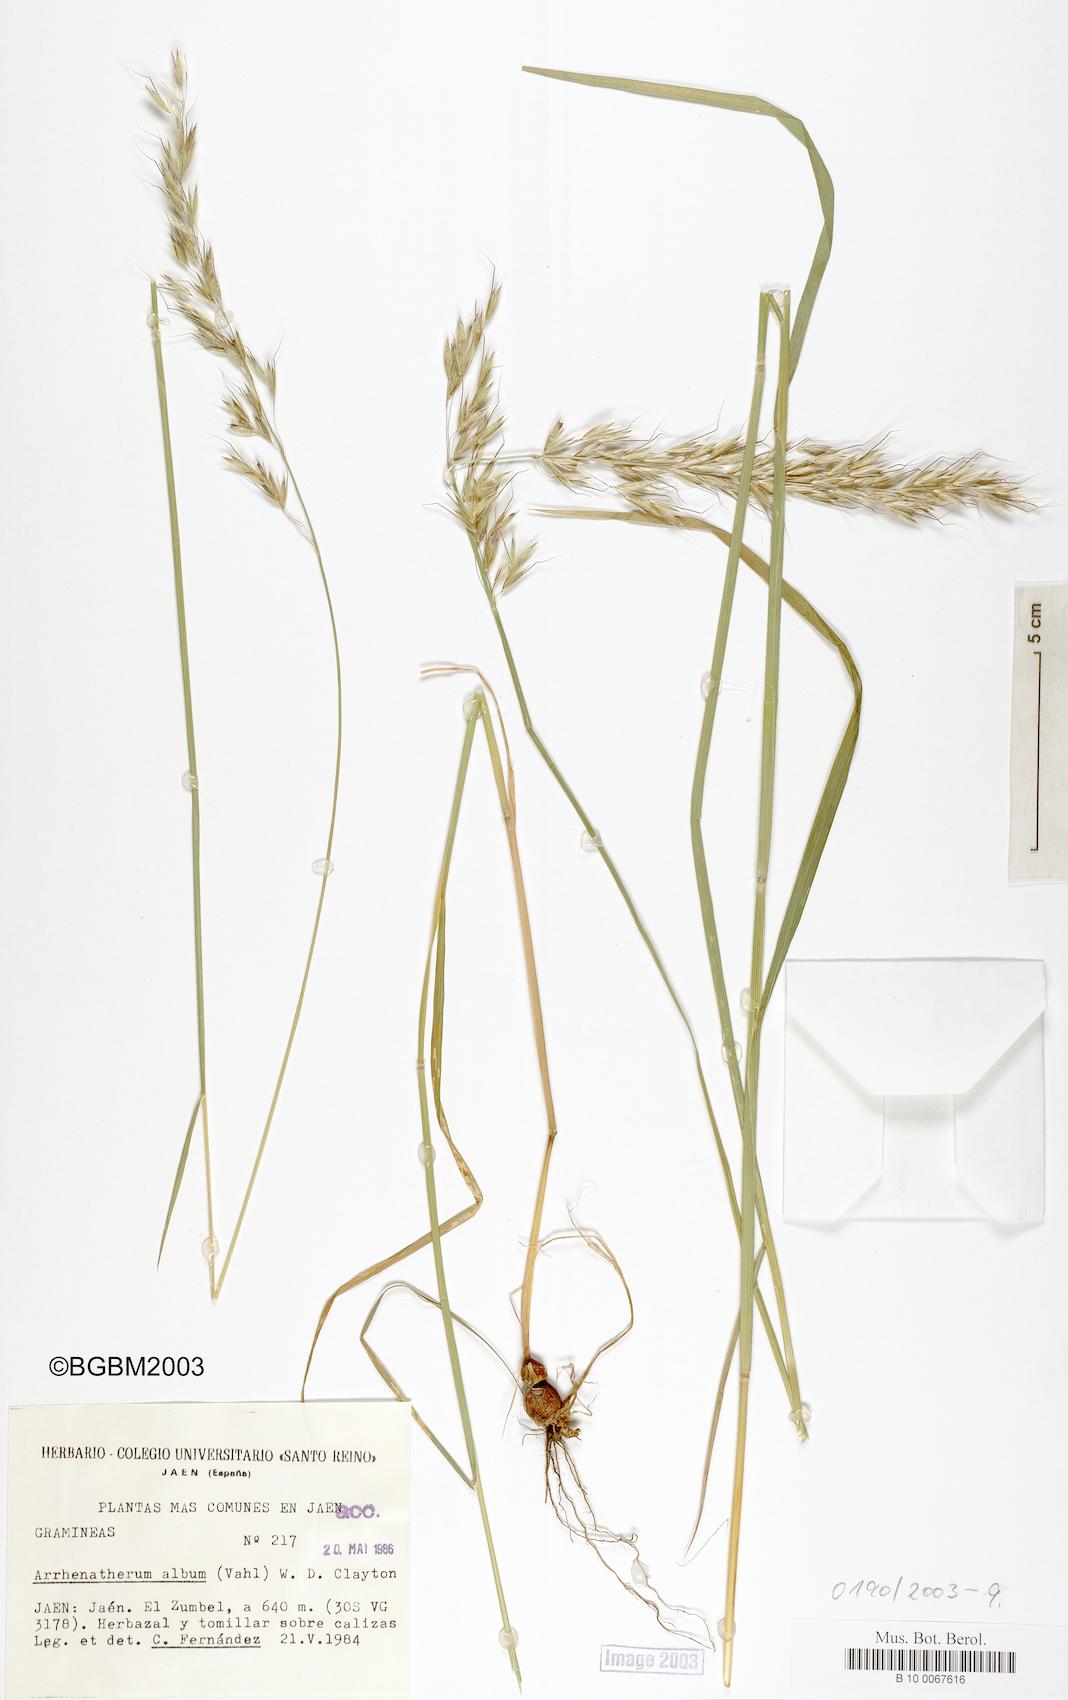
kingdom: Plantae
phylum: Tracheophyta
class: Liliopsida
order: Poales
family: Poaceae
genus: Arrhenatherum
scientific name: Arrhenatherum album
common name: Tall oat grass
